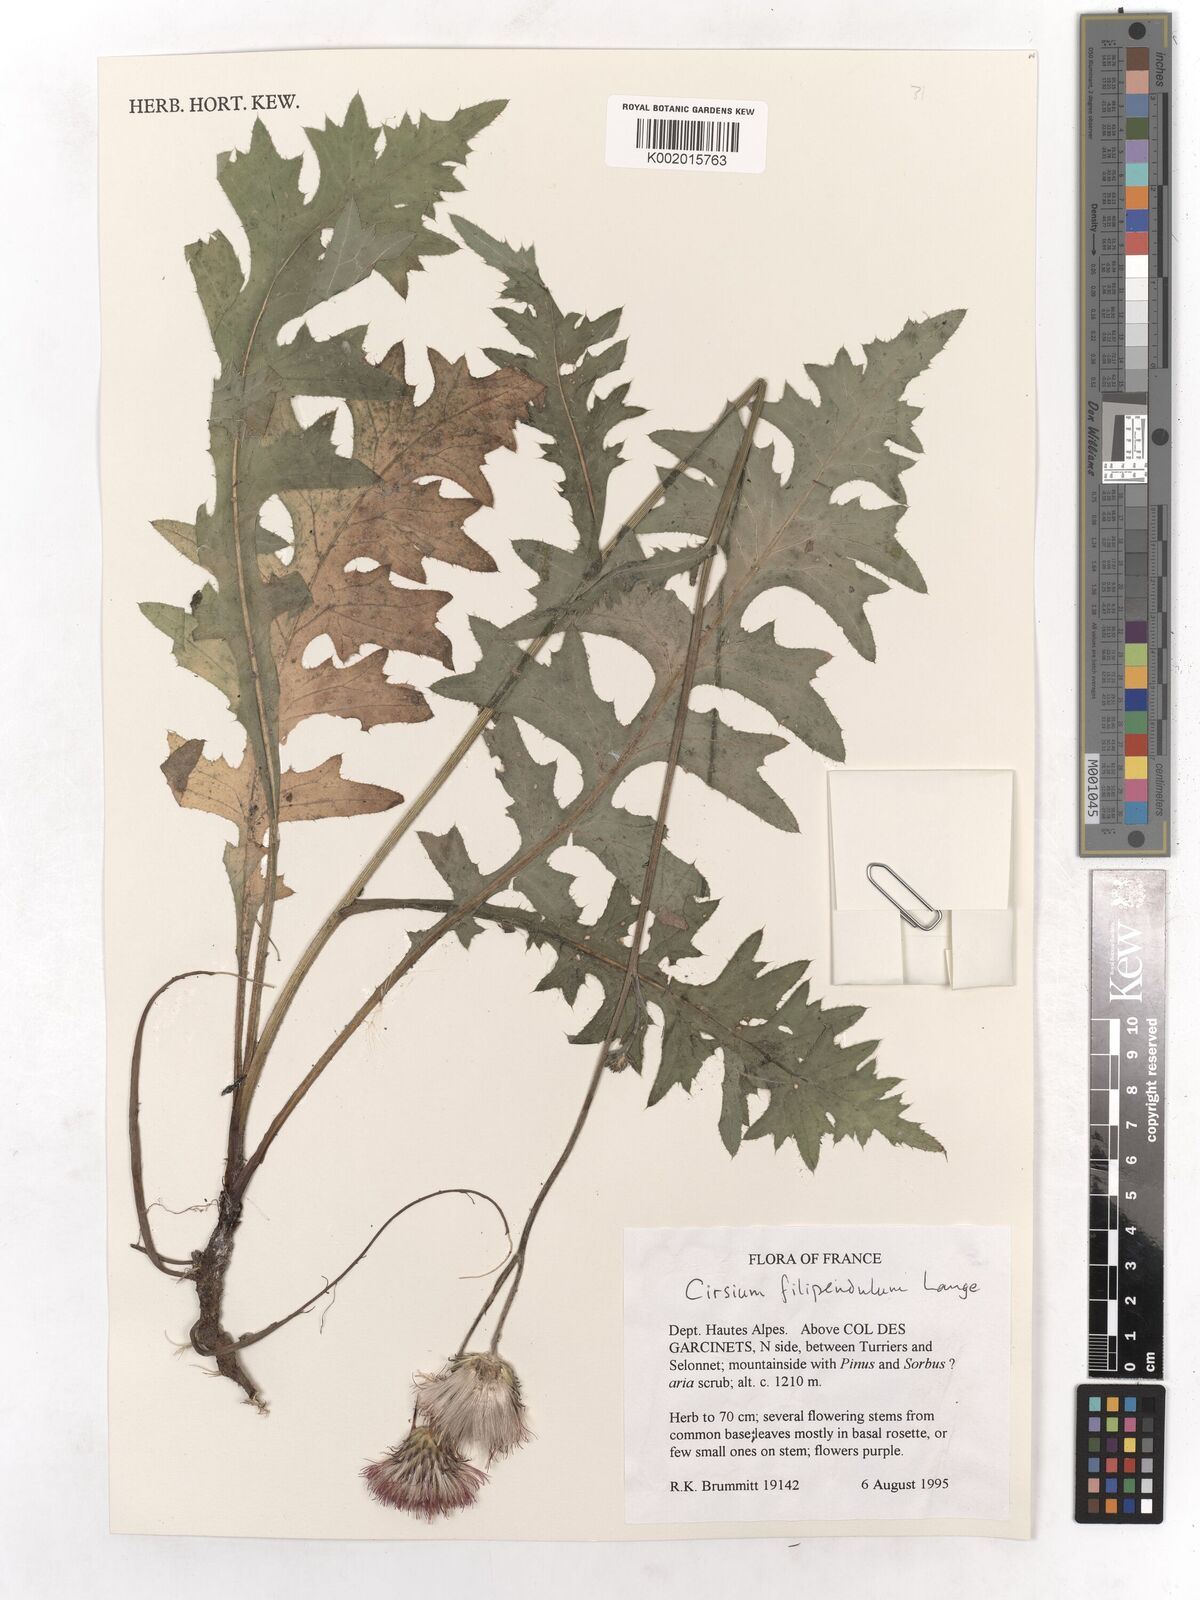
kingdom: Plantae
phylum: Tracheophyta
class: Magnoliopsida
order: Asterales
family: Asteraceae
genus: Cirsium
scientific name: Cirsium filipendulum
